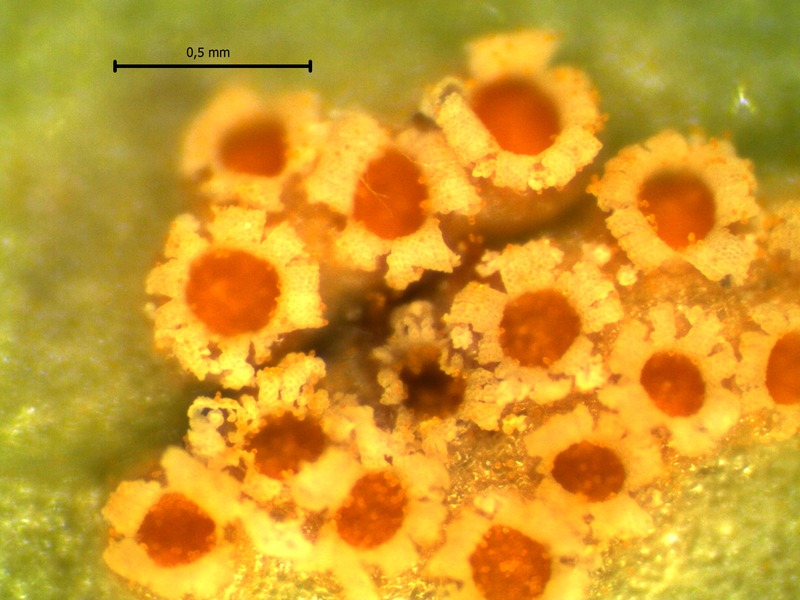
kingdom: Fungi
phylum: Basidiomycota
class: Pucciniomycetes
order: Pucciniales
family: Pucciniaceae
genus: Aecidium
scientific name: Aecidium ranunculi-acris
